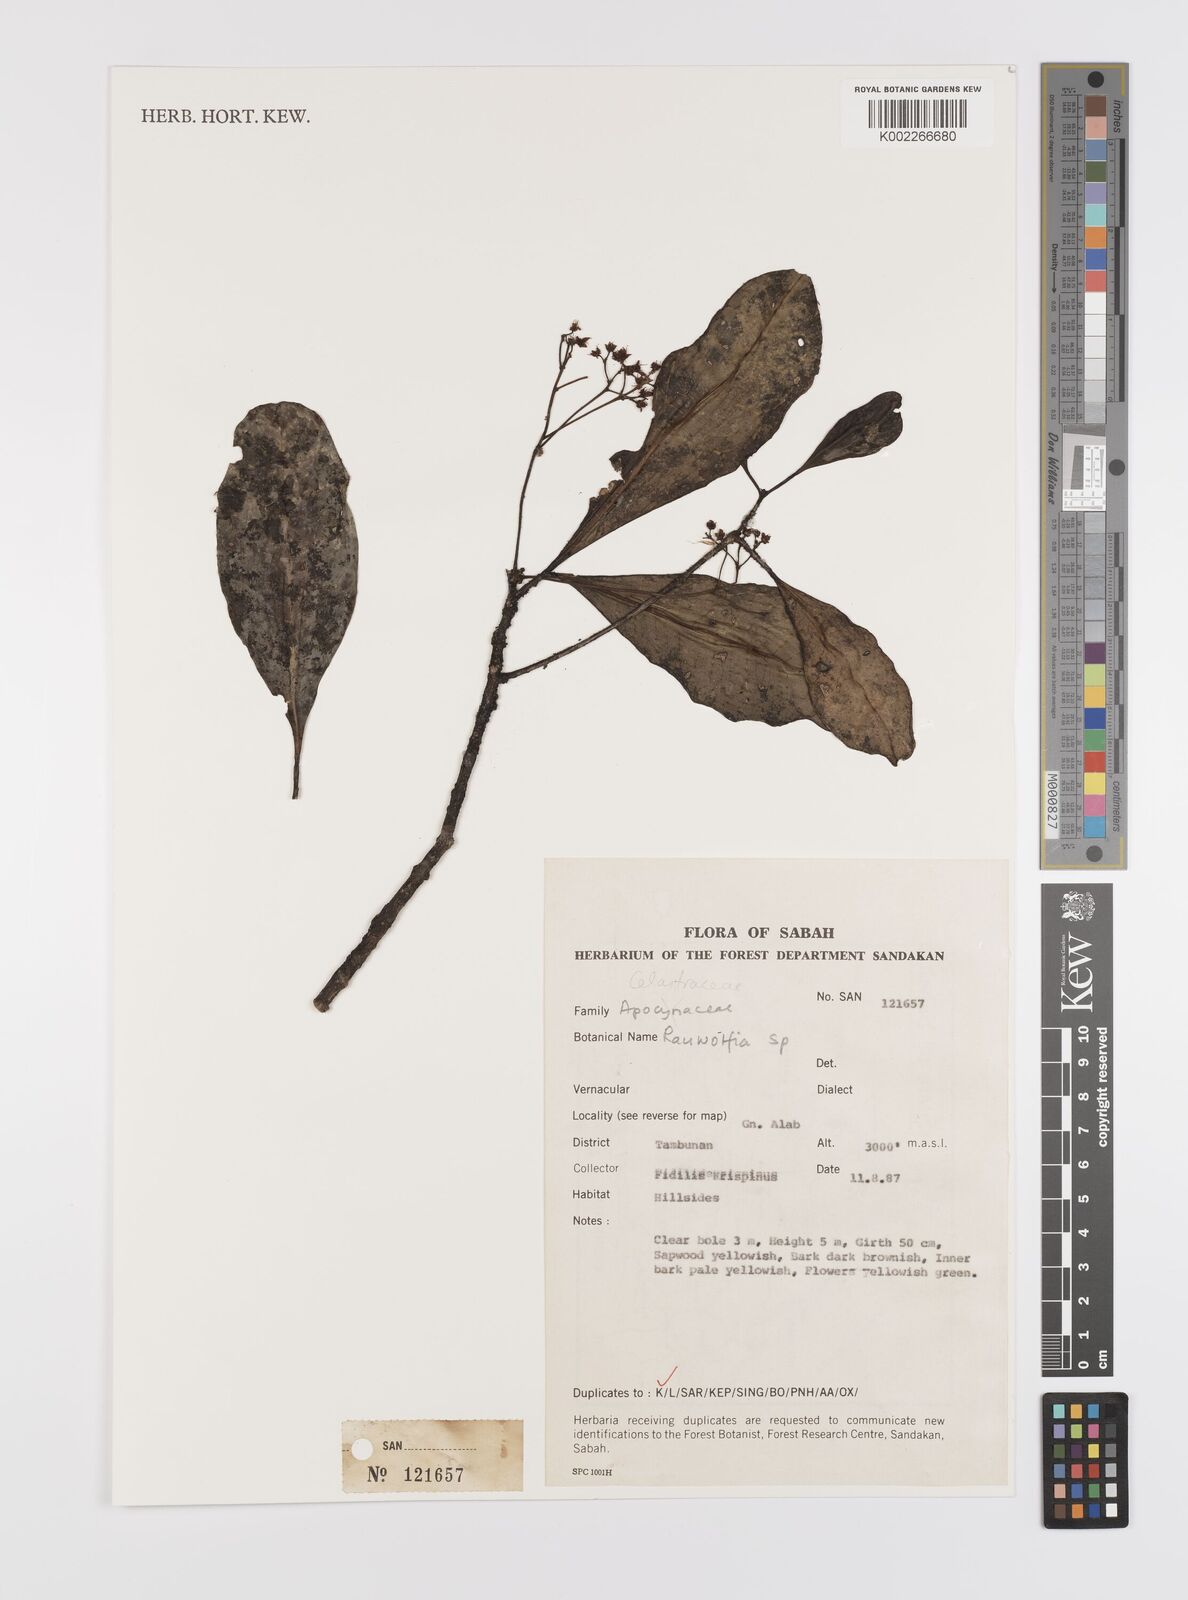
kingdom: Plantae
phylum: Tracheophyta
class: Magnoliopsida
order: Celastrales
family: Celastraceae
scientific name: Celastraceae
